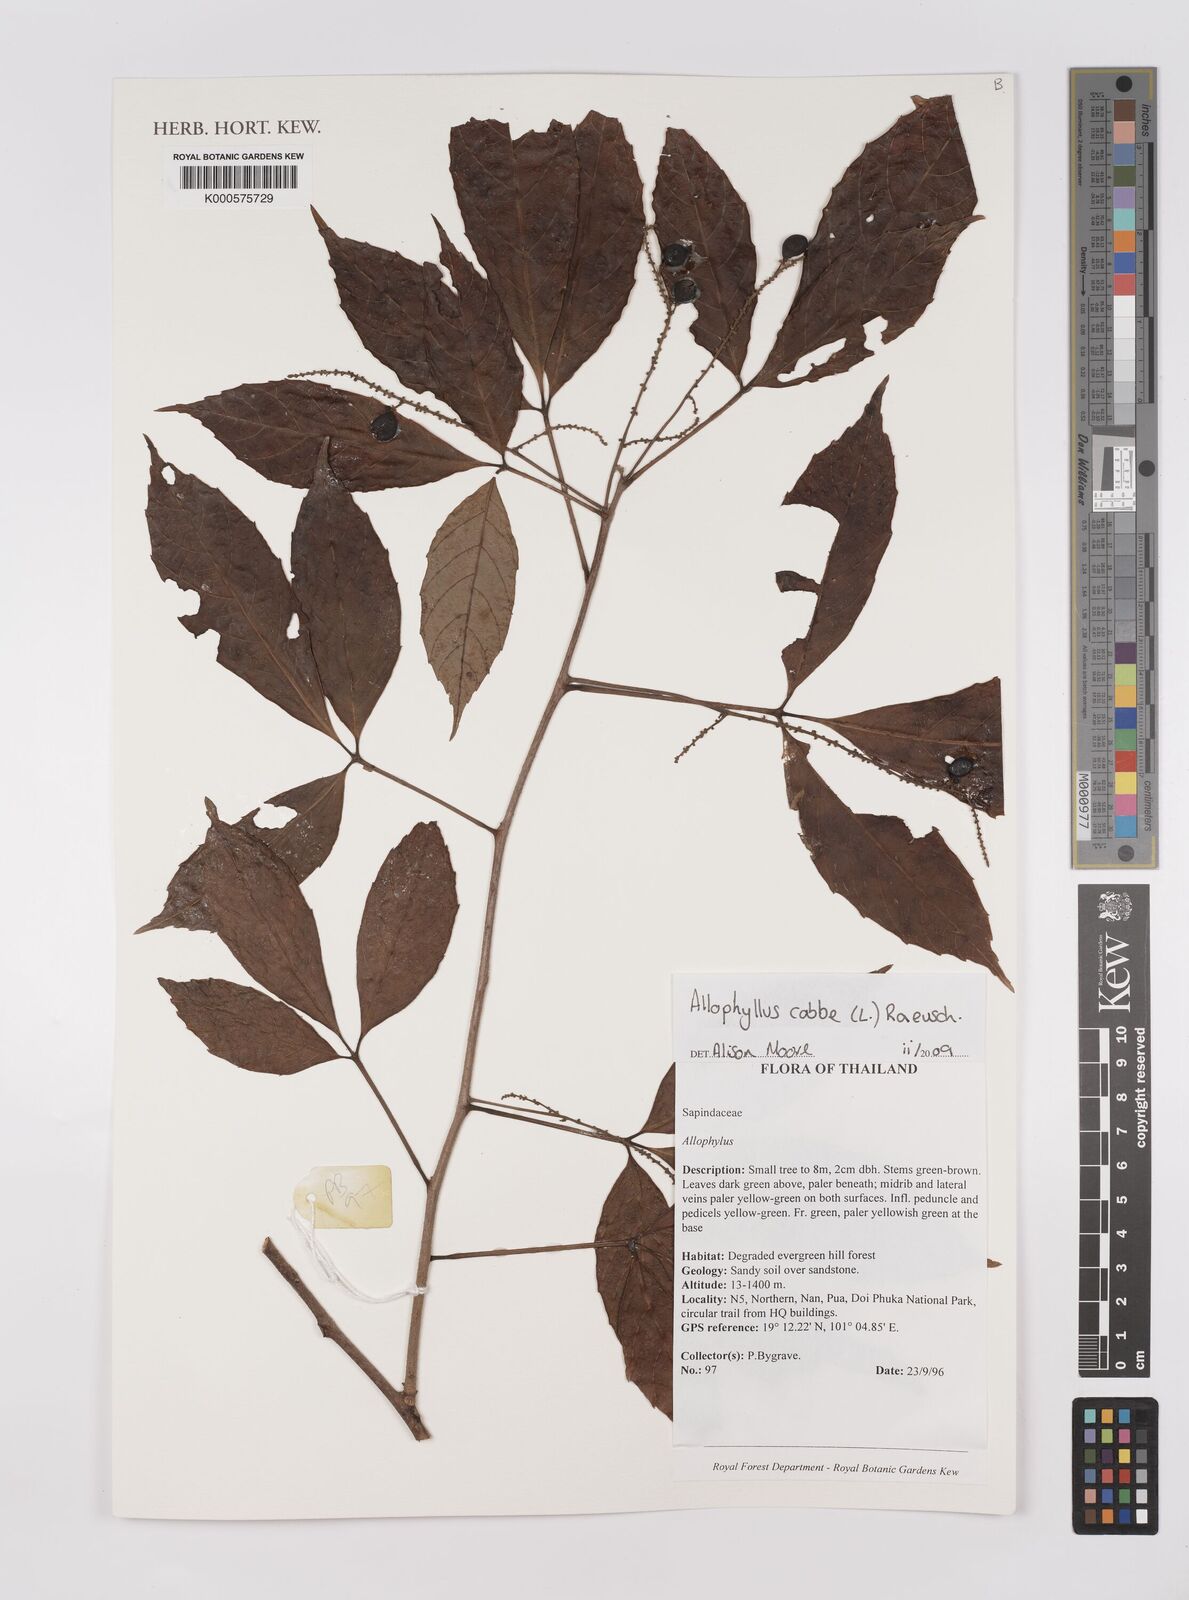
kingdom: Plantae
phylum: Tracheophyta
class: Magnoliopsida
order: Sapindales
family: Sapindaceae
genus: Allophylus
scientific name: Allophylus
